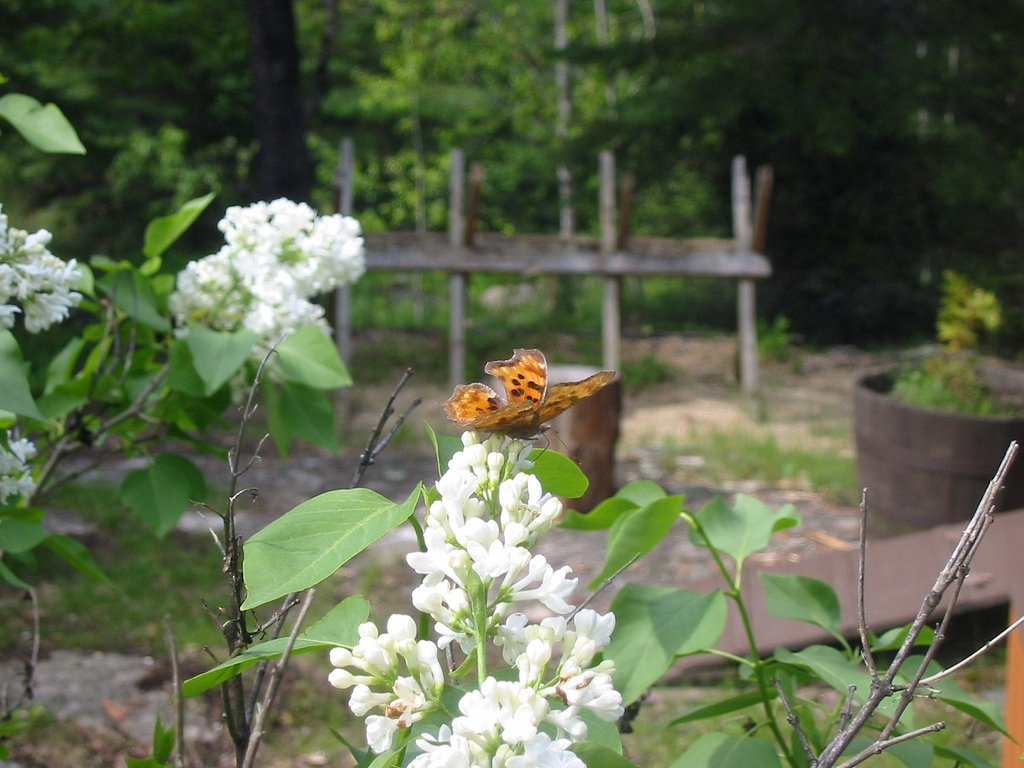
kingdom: Animalia
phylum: Arthropoda
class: Insecta
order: Lepidoptera
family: Nymphalidae
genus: Polygonia
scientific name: Polygonia satyrus
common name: Satyr Comma
